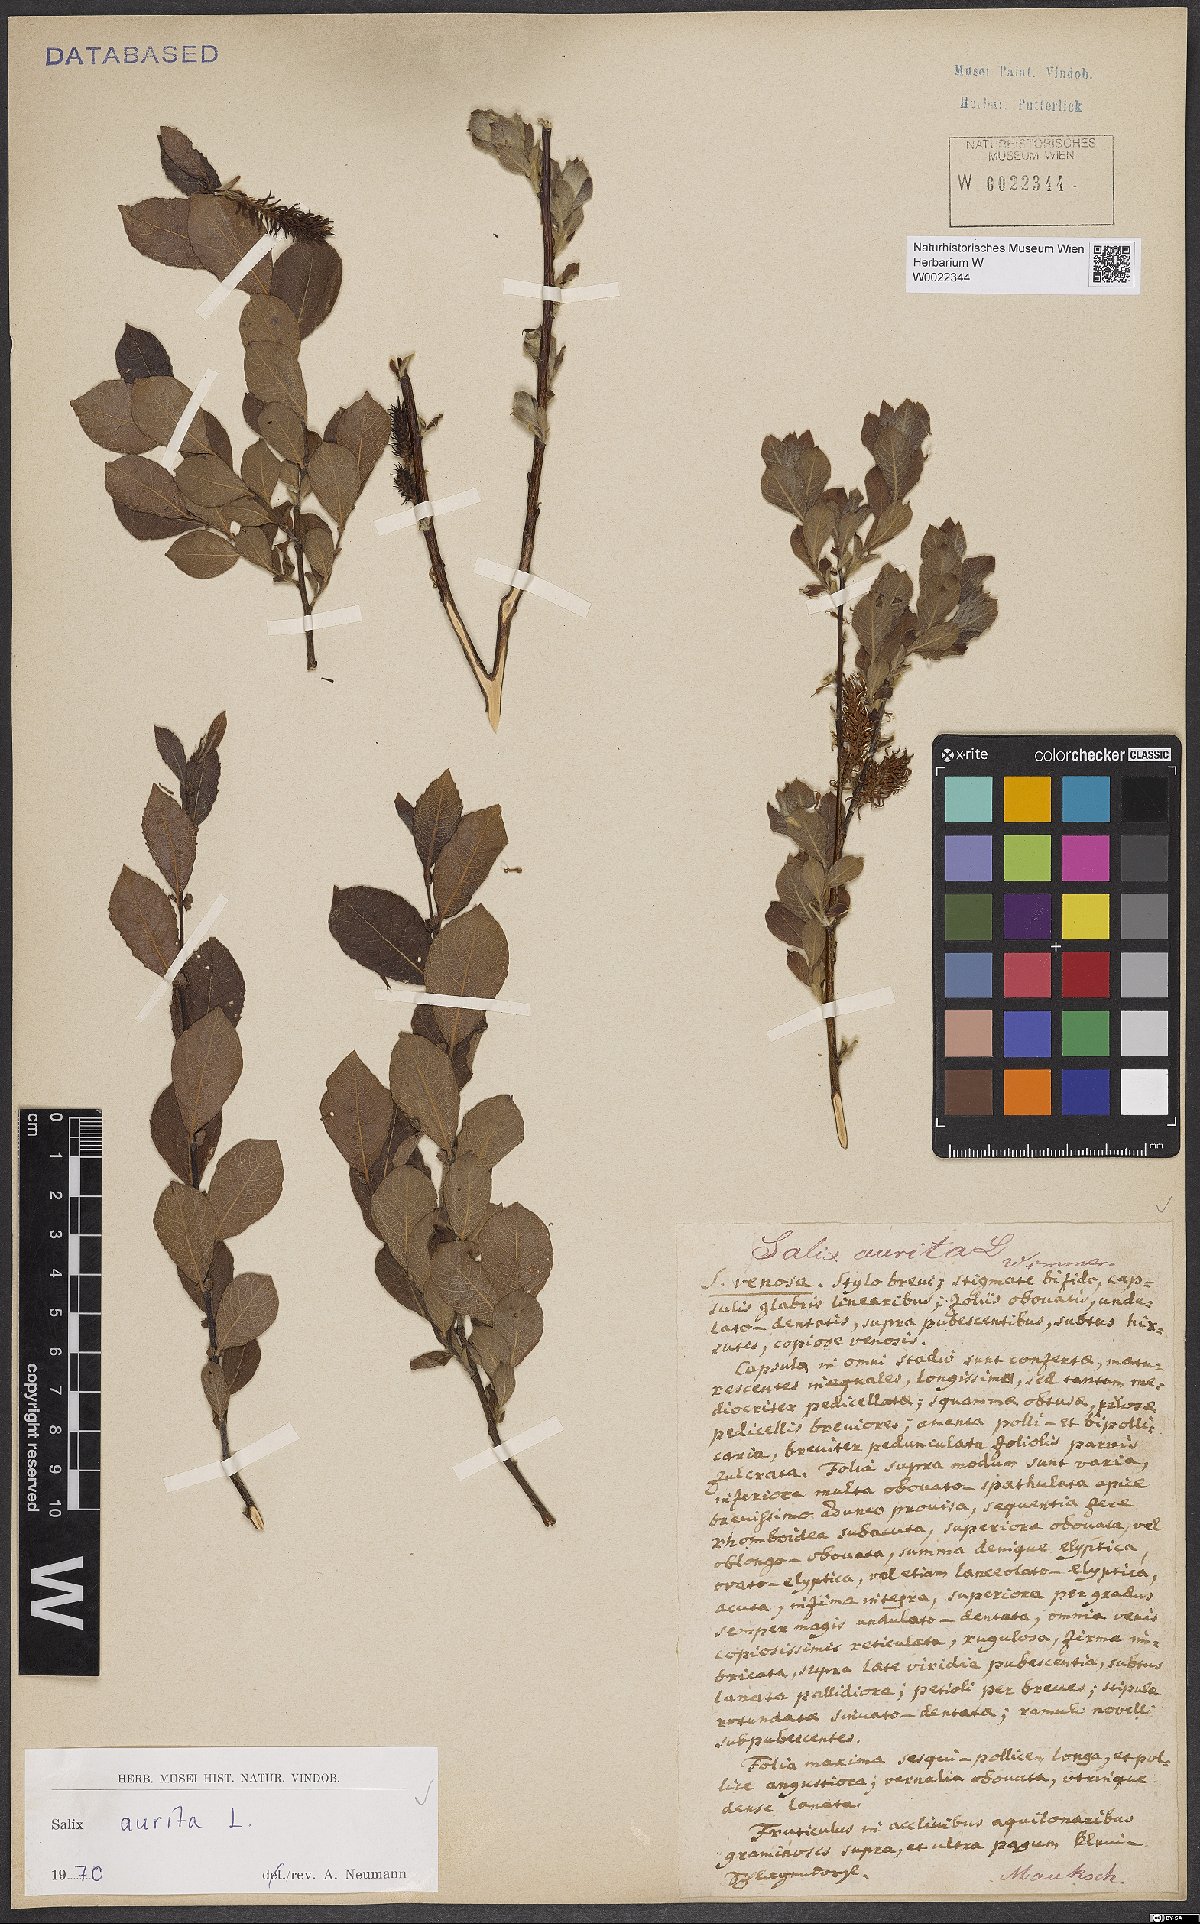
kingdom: Plantae
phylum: Tracheophyta
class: Magnoliopsida
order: Malpighiales
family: Salicaceae
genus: Salix
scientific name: Salix aurita
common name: Eared willow
